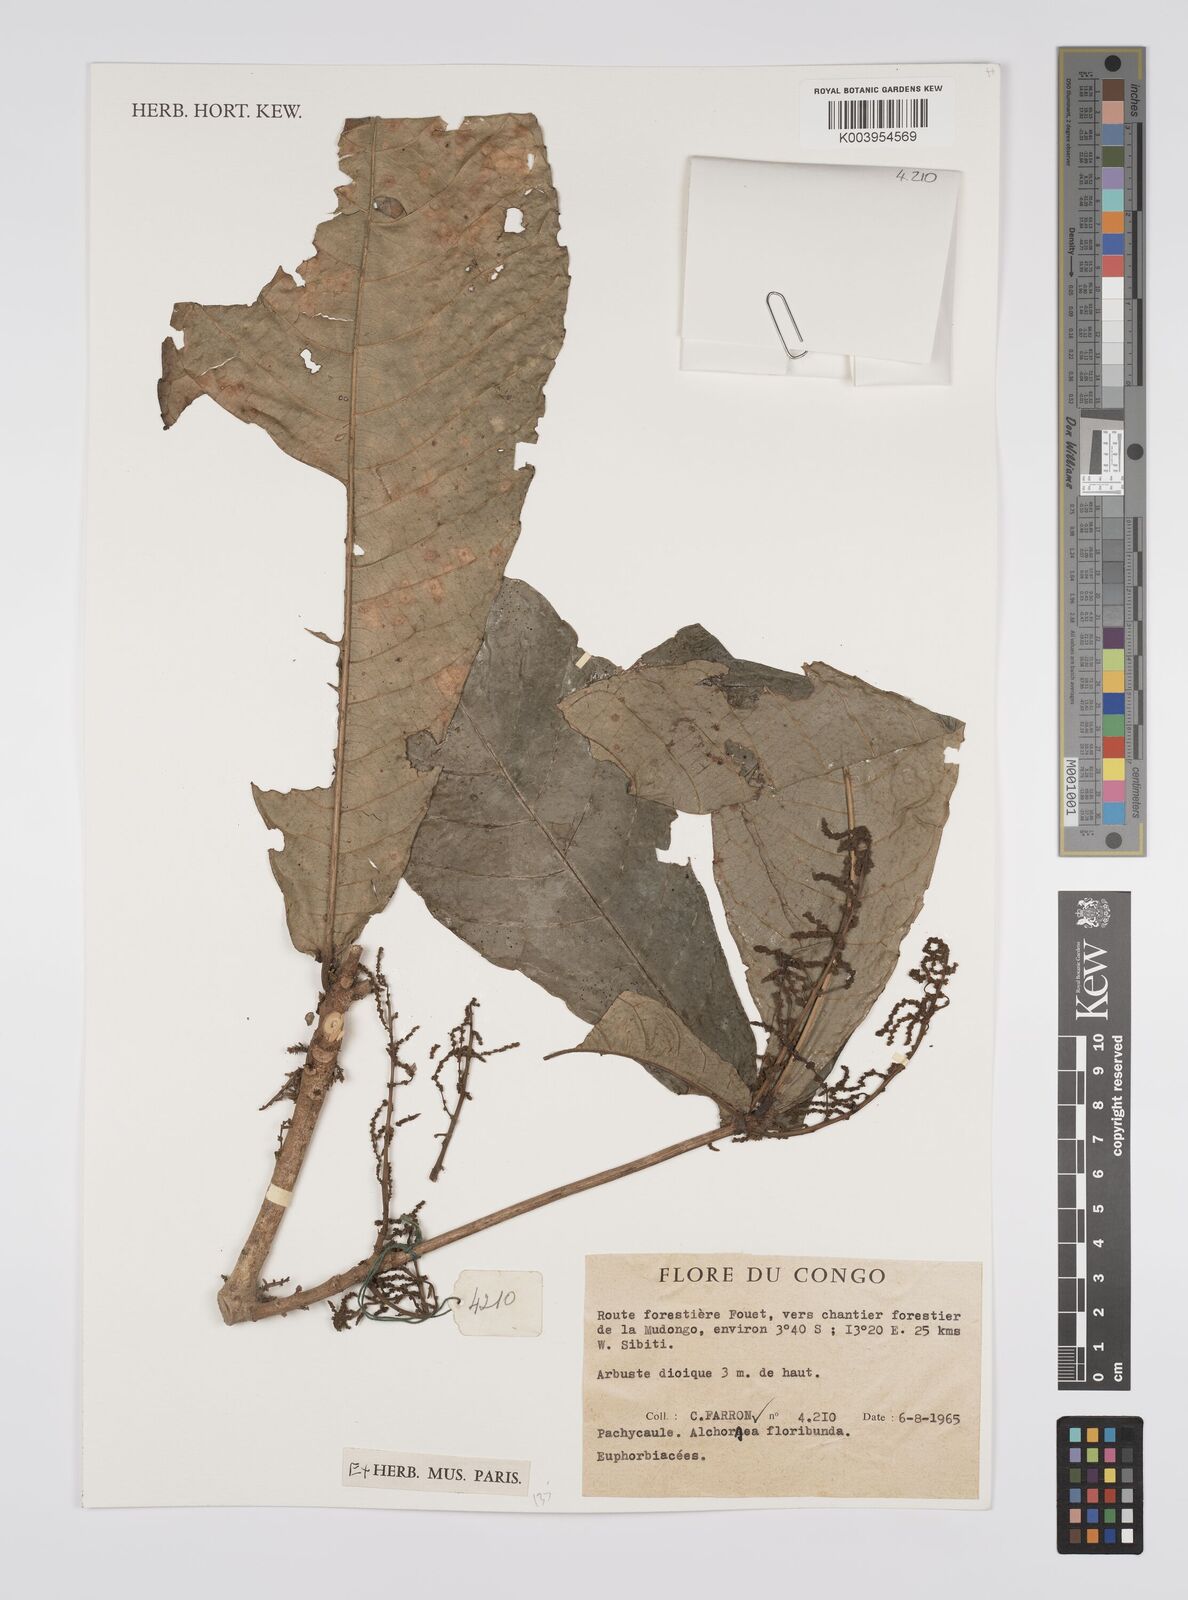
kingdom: Plantae
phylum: Tracheophyta
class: Magnoliopsida
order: Malpighiales
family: Euphorbiaceae
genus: Alchornea
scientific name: Alchornea floribunda
